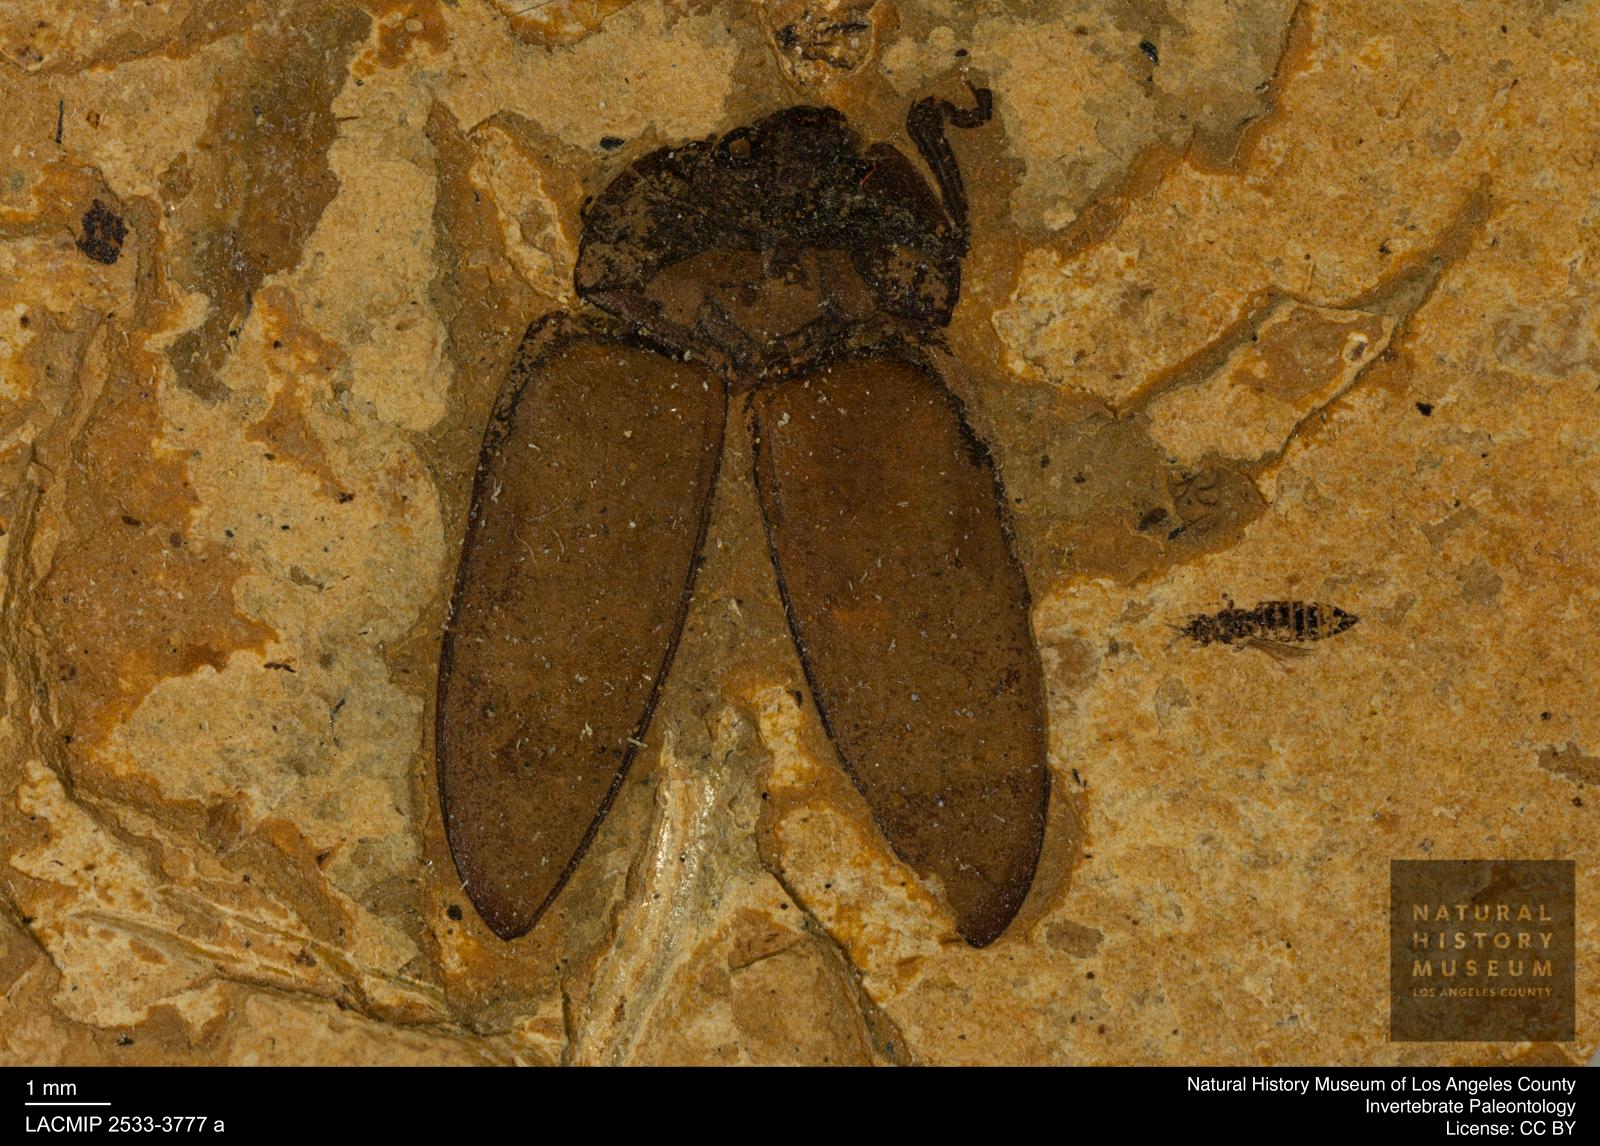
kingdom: Animalia
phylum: Arthropoda
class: Insecta
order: Thysanoptera
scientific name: Thysanoptera
